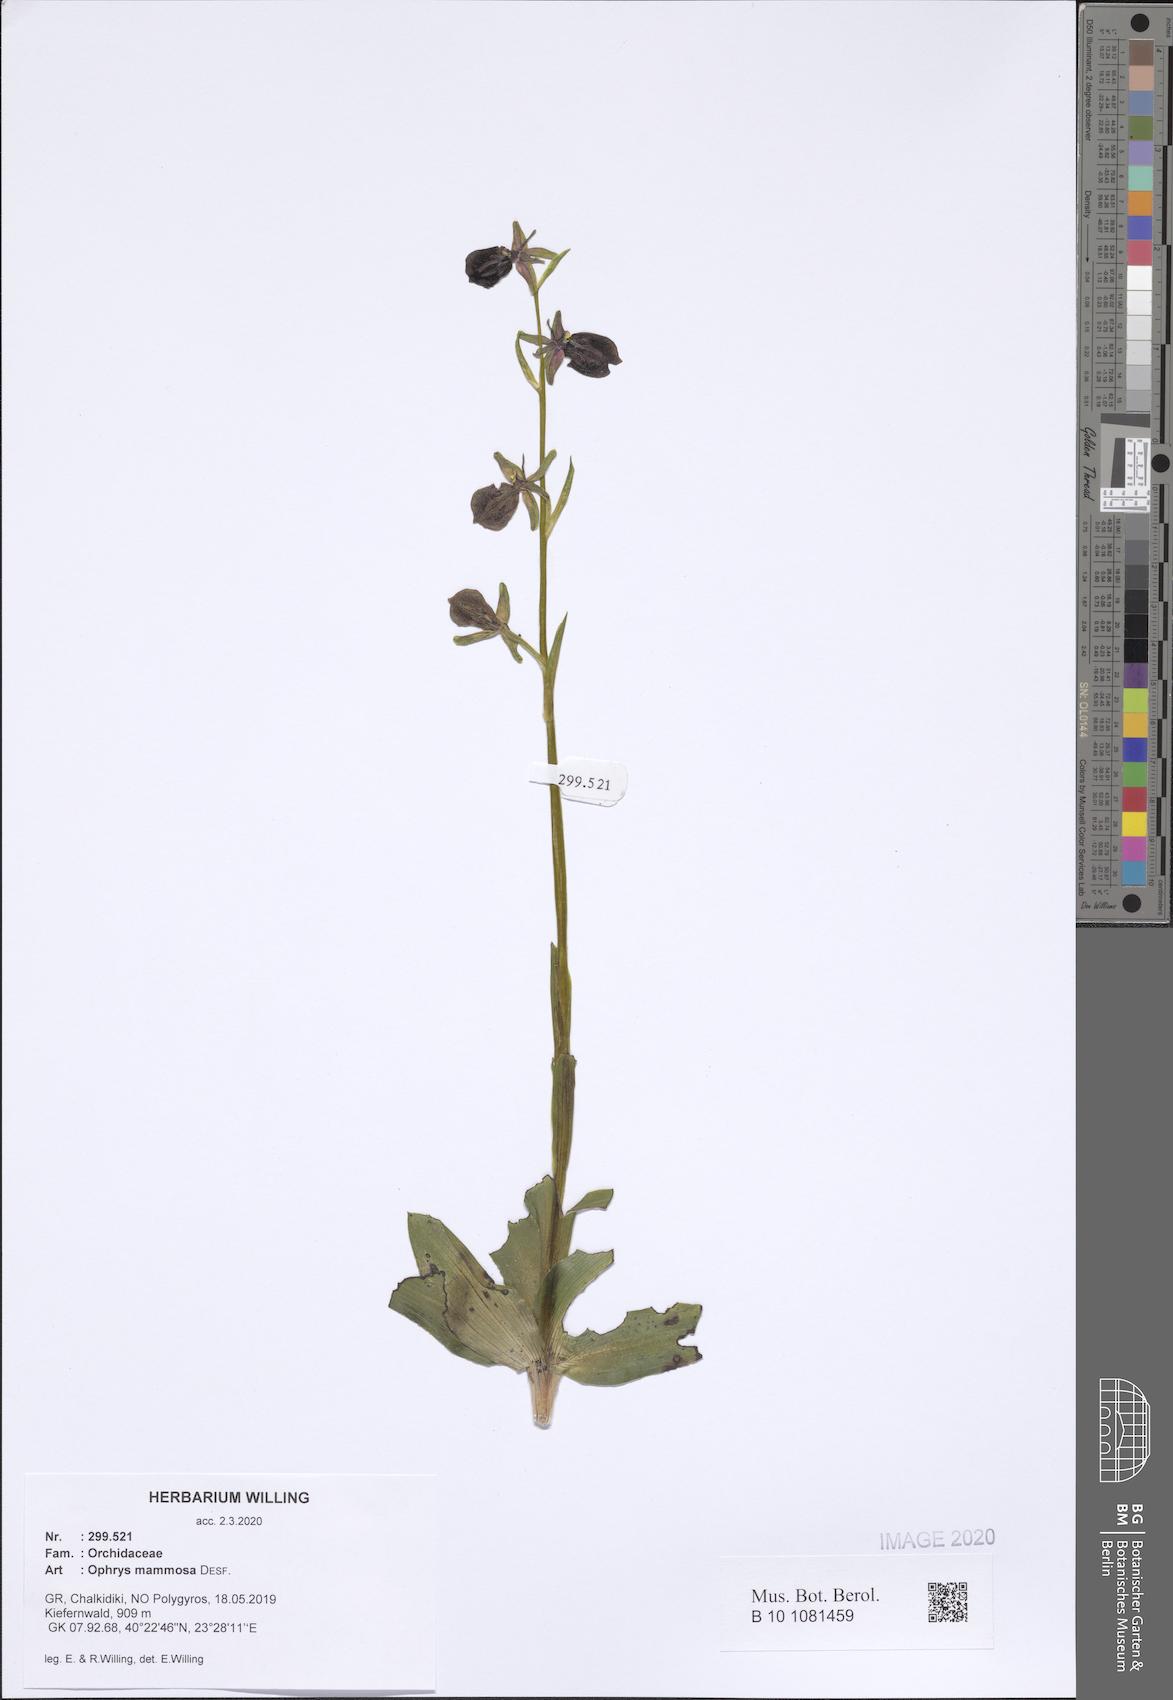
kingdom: Plantae
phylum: Tracheophyta
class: Liliopsida
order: Asparagales
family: Orchidaceae
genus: Ophrys
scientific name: Ophrys sphegodes
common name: Early spider-orchid
